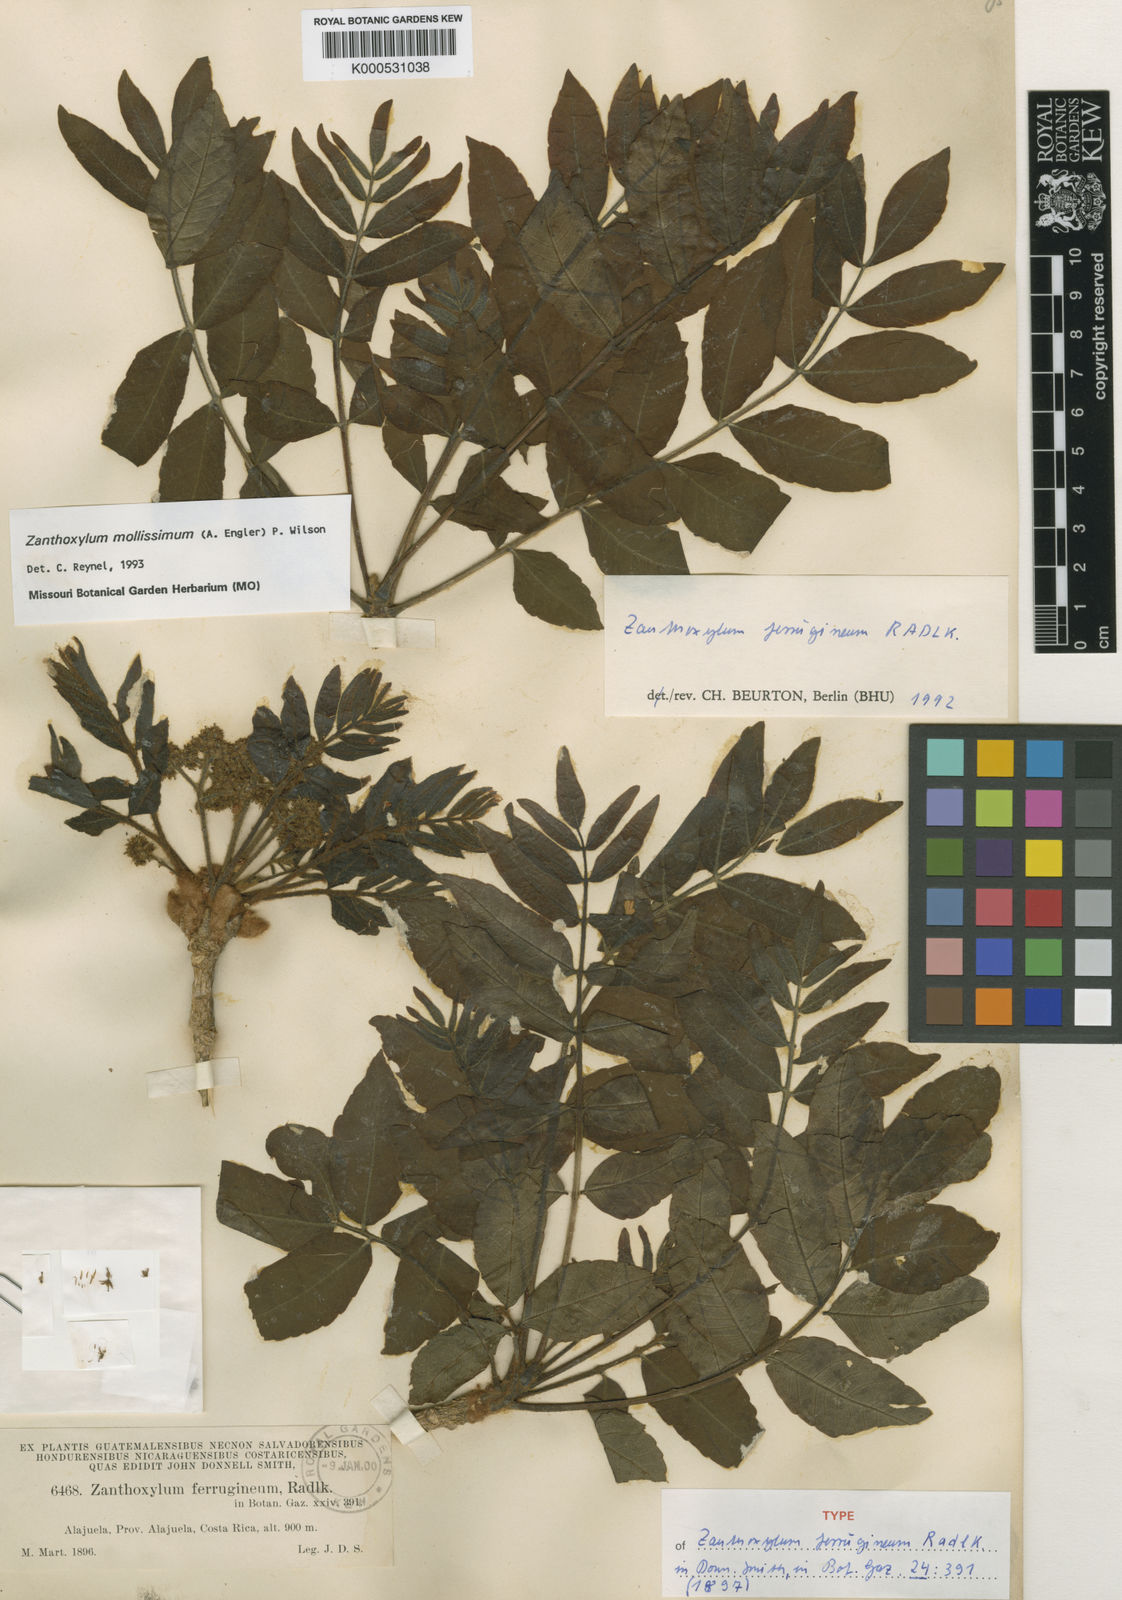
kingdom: Plantae
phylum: Tracheophyta
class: Magnoliopsida
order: Sapindales
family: Rutaceae
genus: Zanthoxylum
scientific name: Zanthoxylum mollissimum
